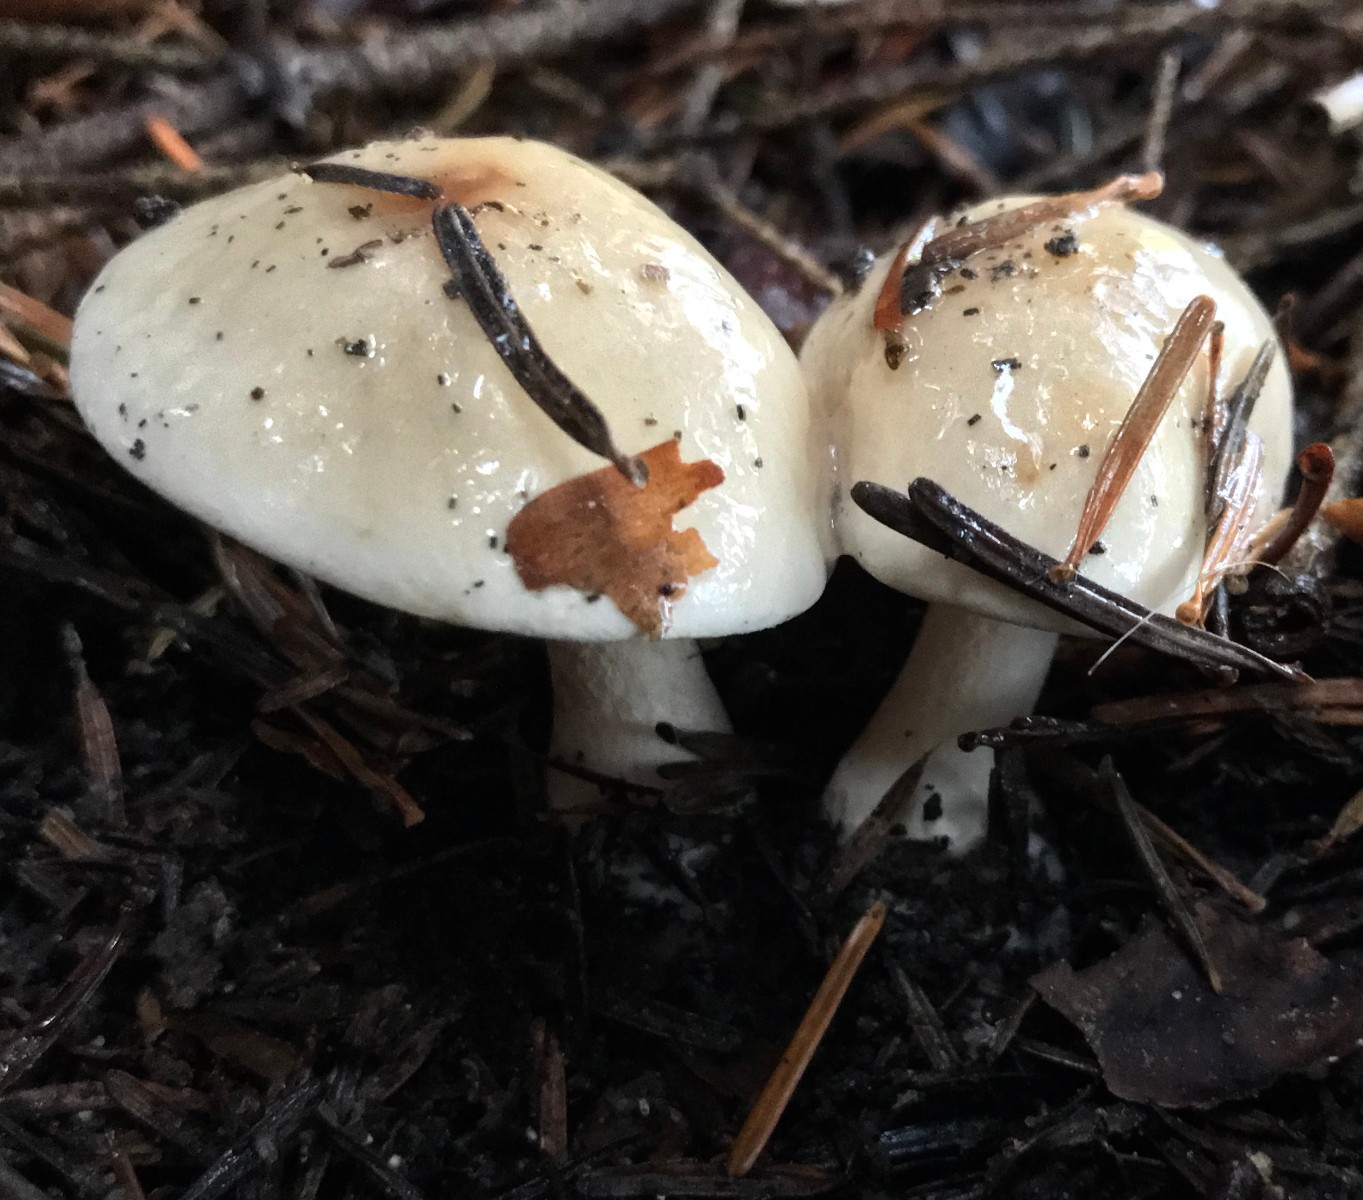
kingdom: Fungi
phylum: Basidiomycota
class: Agaricomycetes
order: Agaricales
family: Hymenogastraceae
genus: Hebeloma
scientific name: Hebeloma
